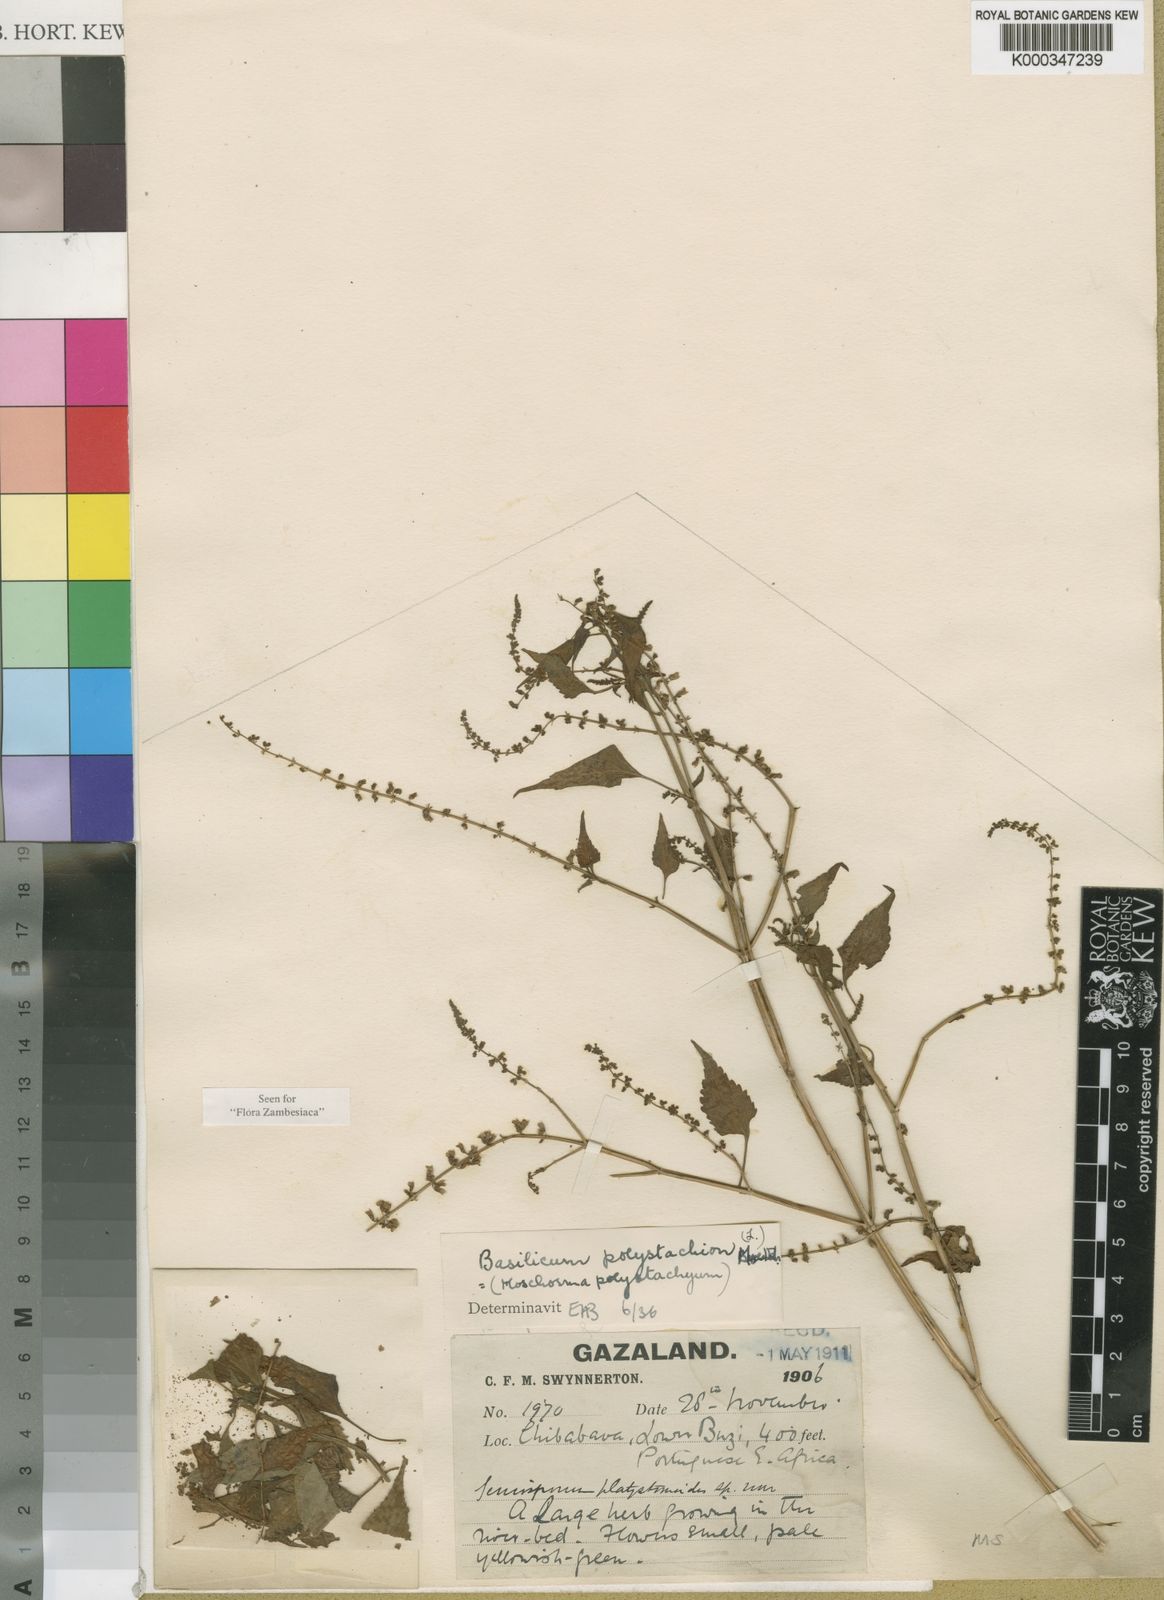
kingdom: Plantae
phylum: Tracheophyta
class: Magnoliopsida
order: Lamiales
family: Lamiaceae
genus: Basilicum
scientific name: Basilicum polystachyon
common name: Musk-basil
